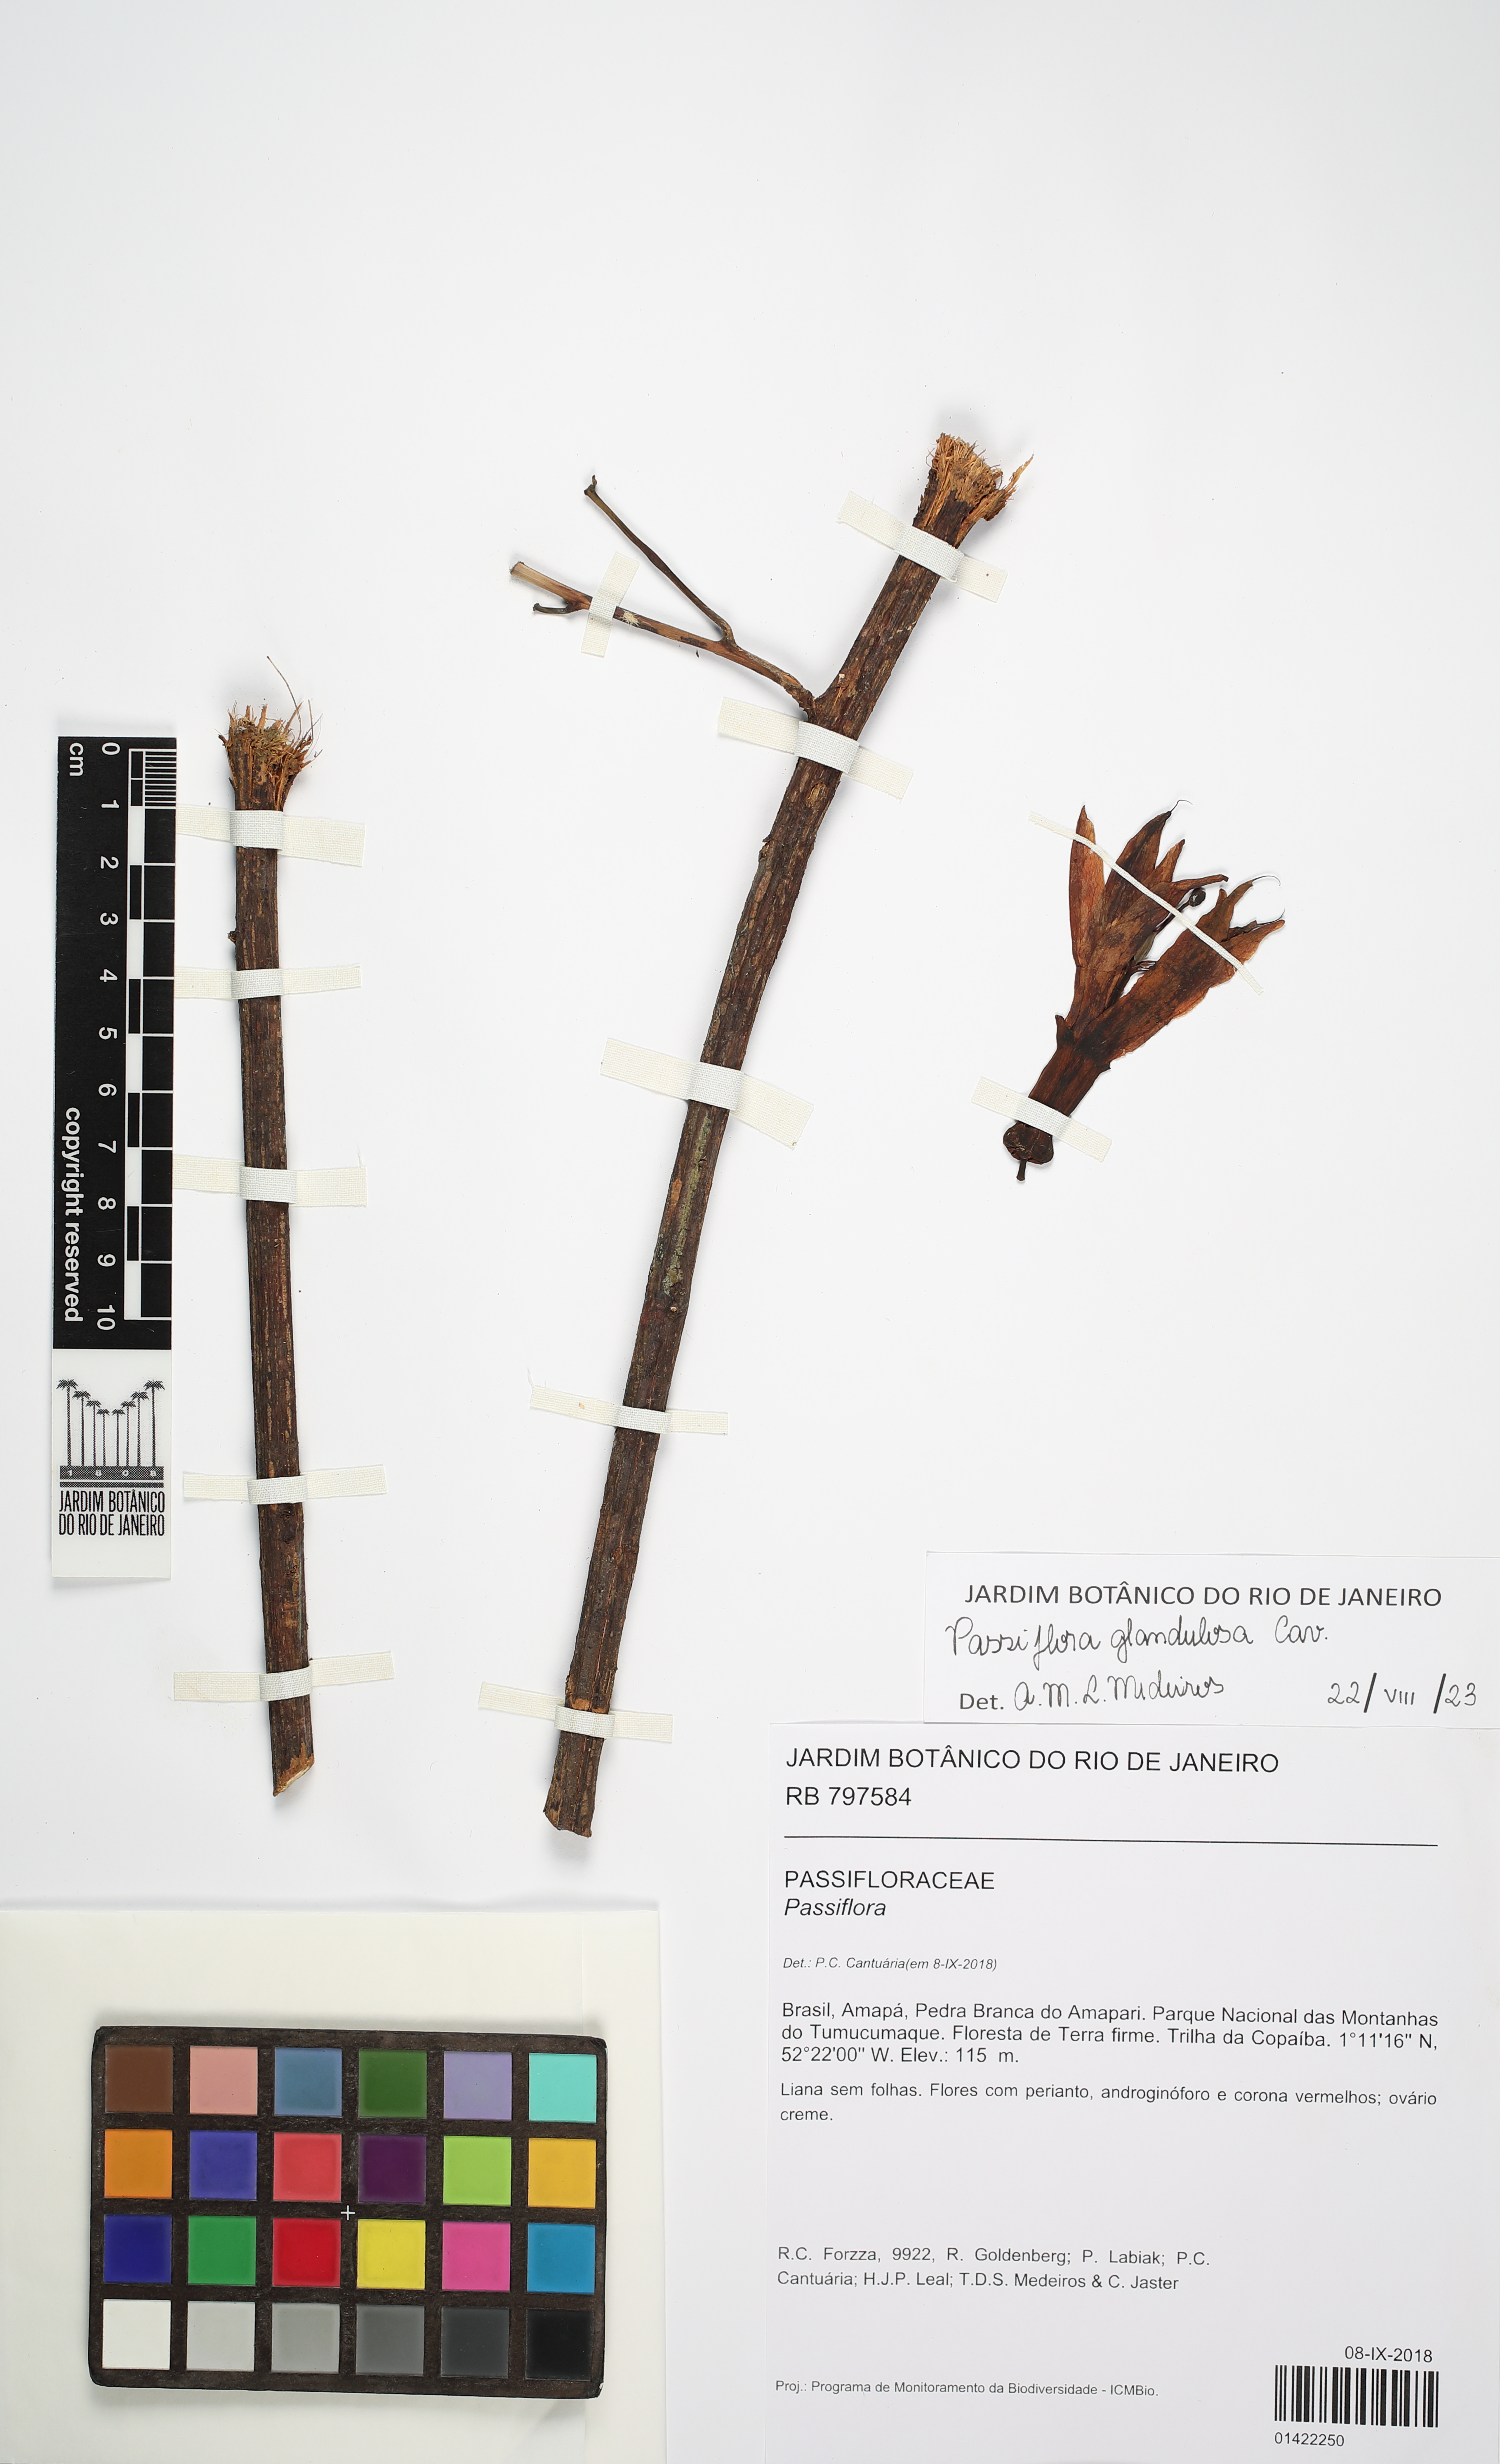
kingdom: Plantae
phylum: Tracheophyta
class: Magnoliopsida
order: Malpighiales
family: Passifloraceae
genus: Passiflora
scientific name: Passiflora glandulosa
